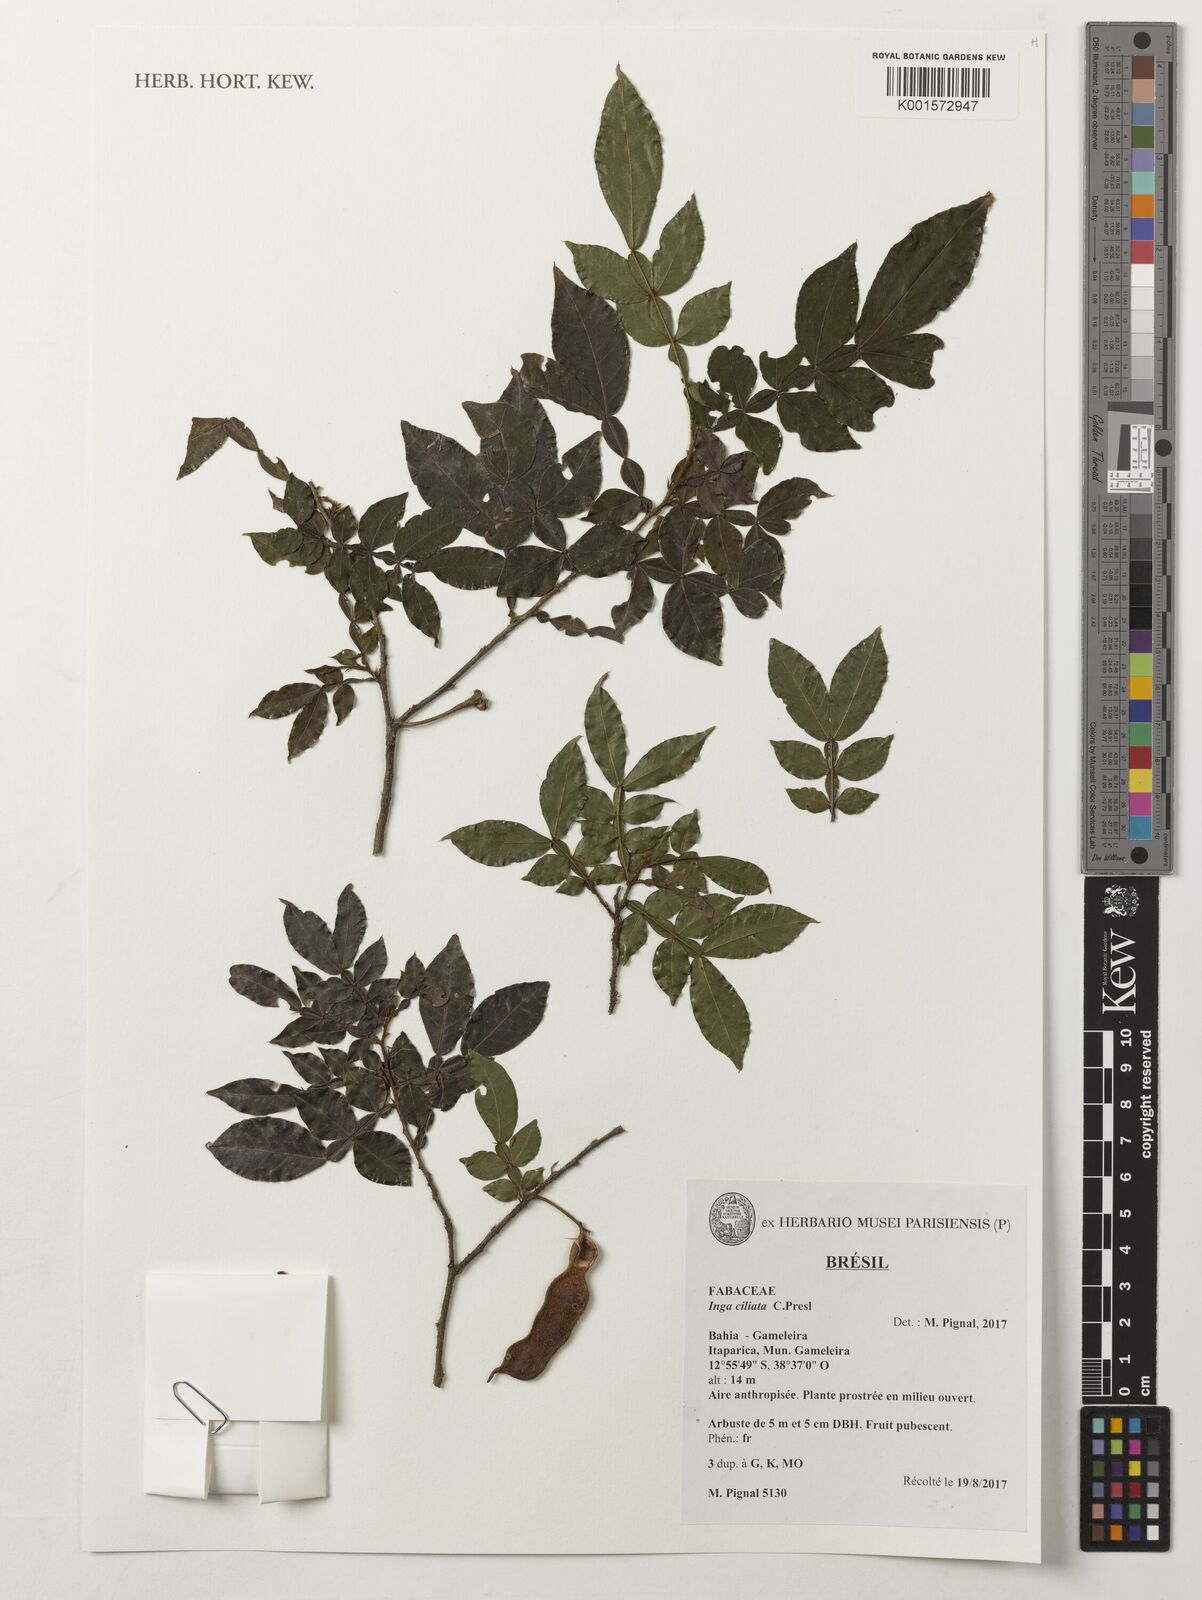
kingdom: Plantae
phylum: Tracheophyta
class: Magnoliopsida
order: Fabales
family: Fabaceae
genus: Inga
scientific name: Inga ciliata
